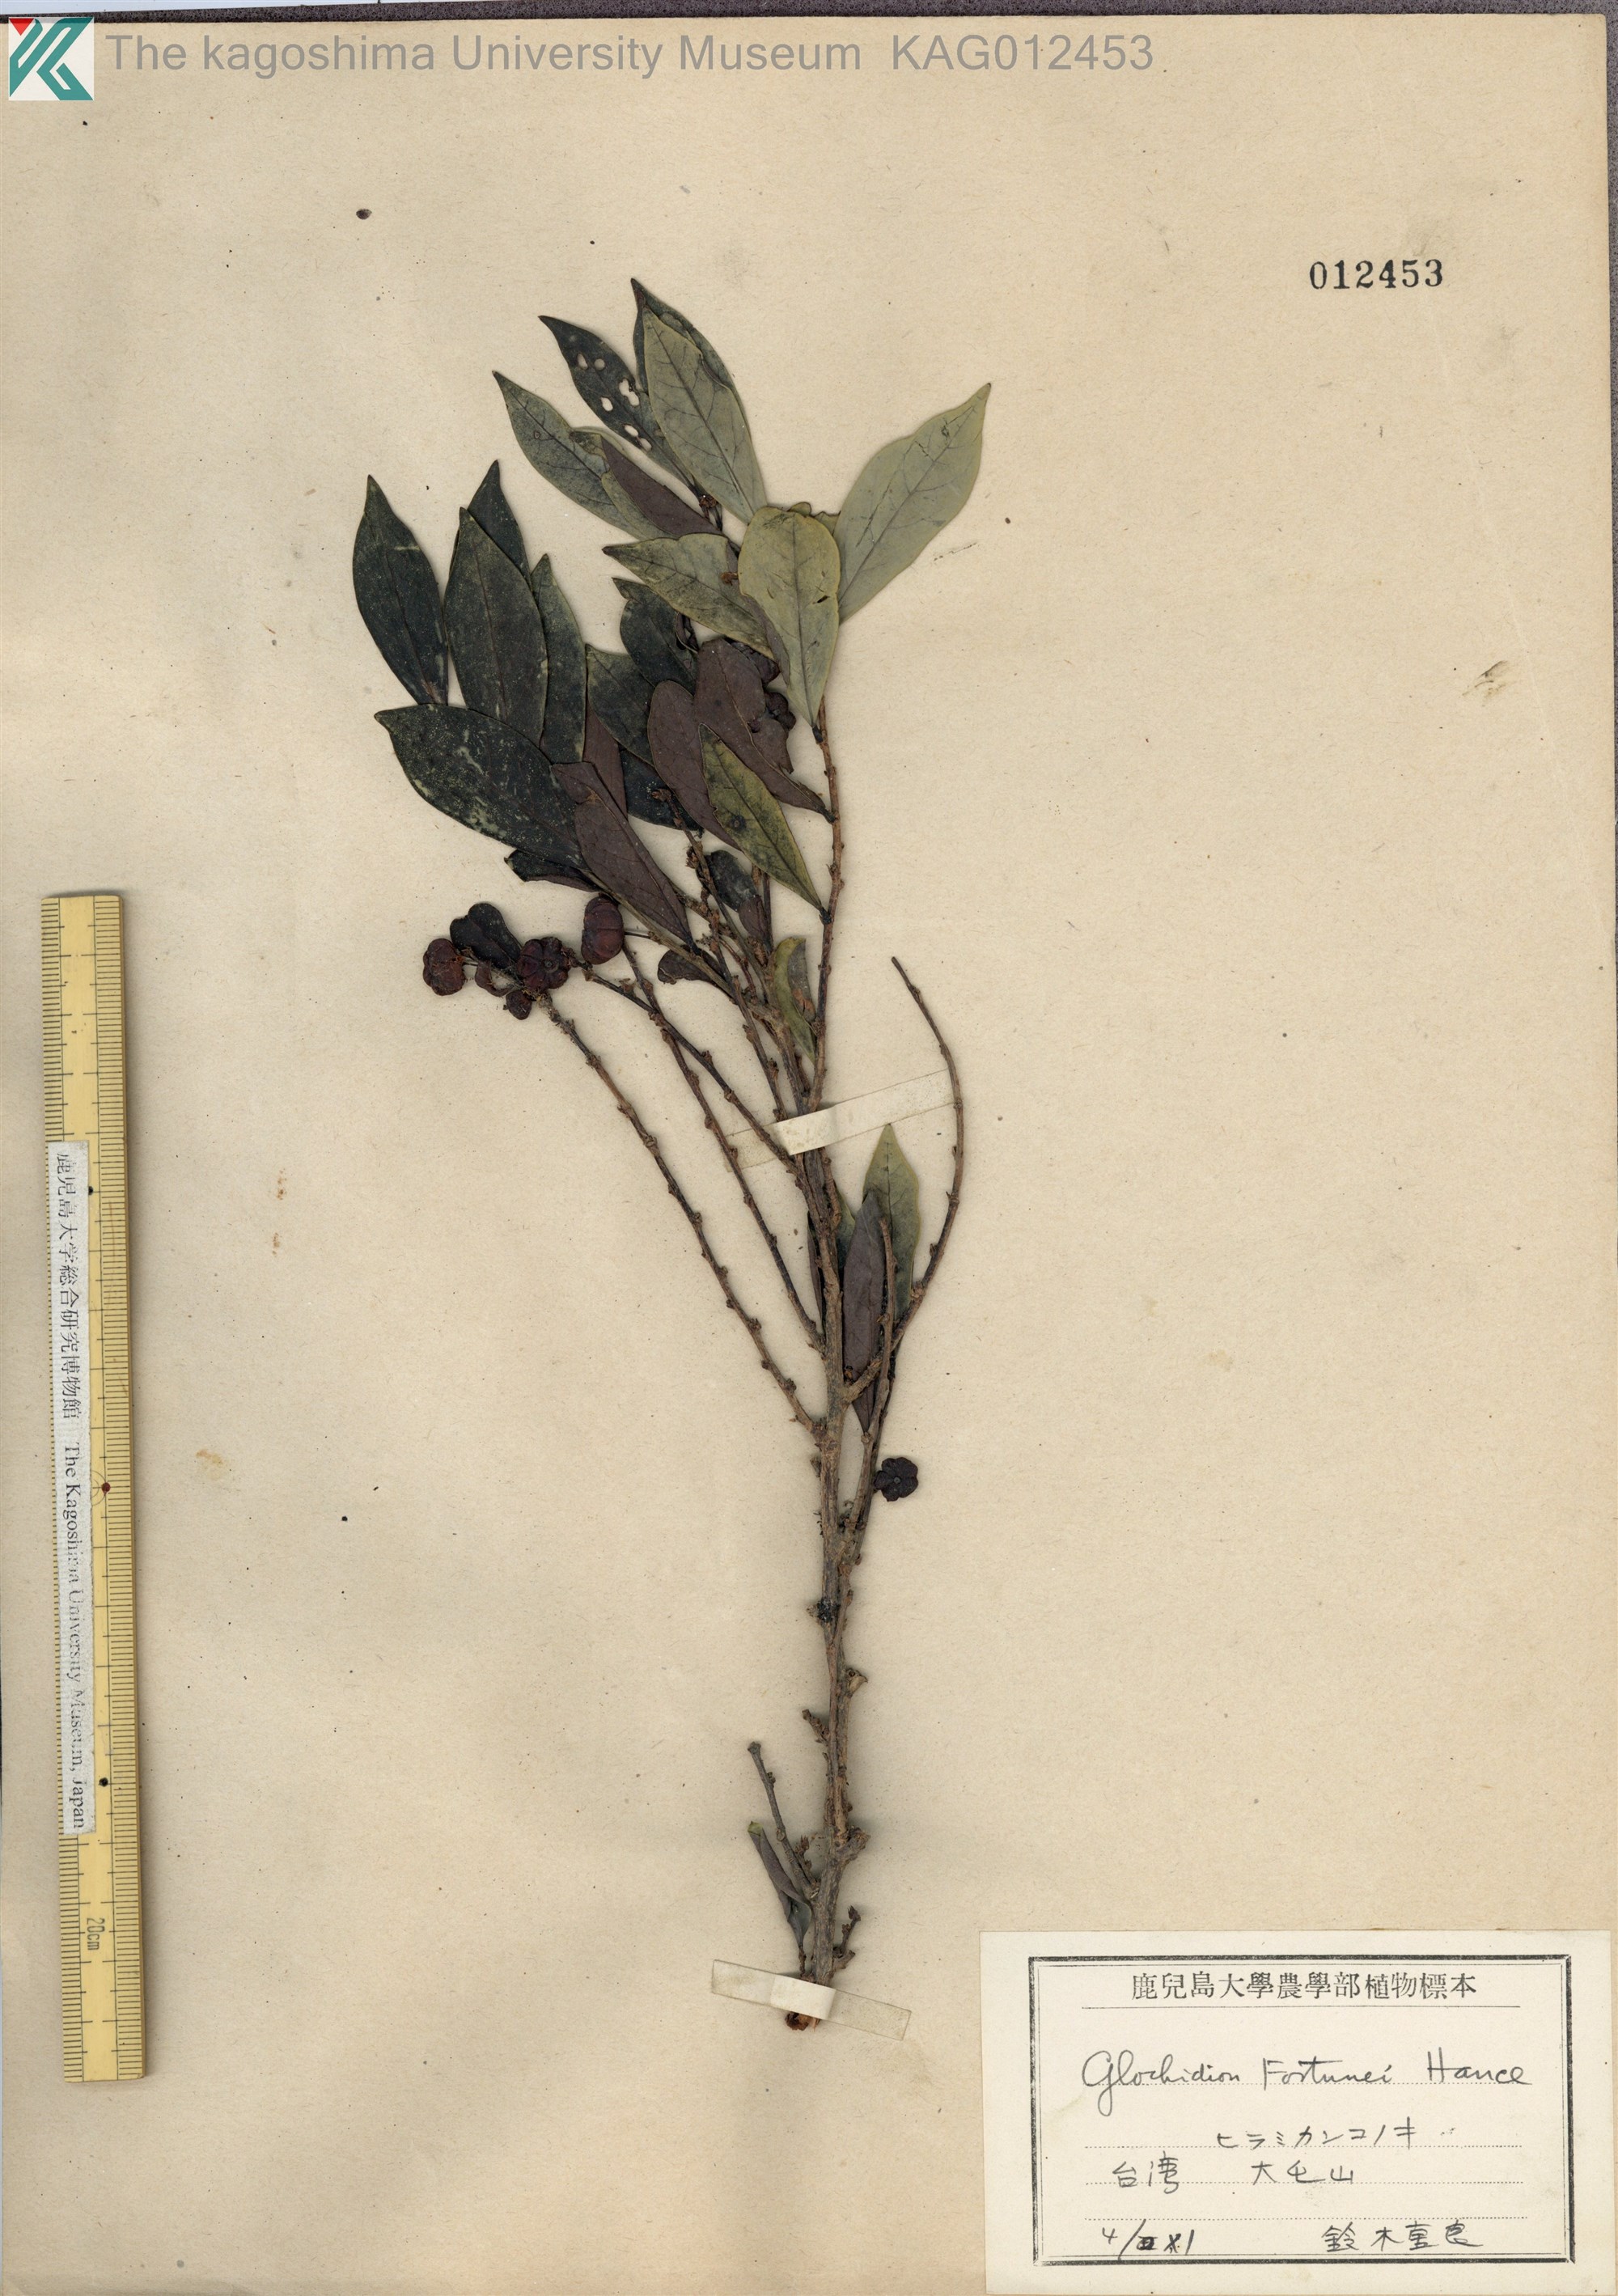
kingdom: Plantae
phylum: Tracheophyta
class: Magnoliopsida
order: Malpighiales
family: Phyllanthaceae
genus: Glochidion
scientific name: Glochidion rubrum
